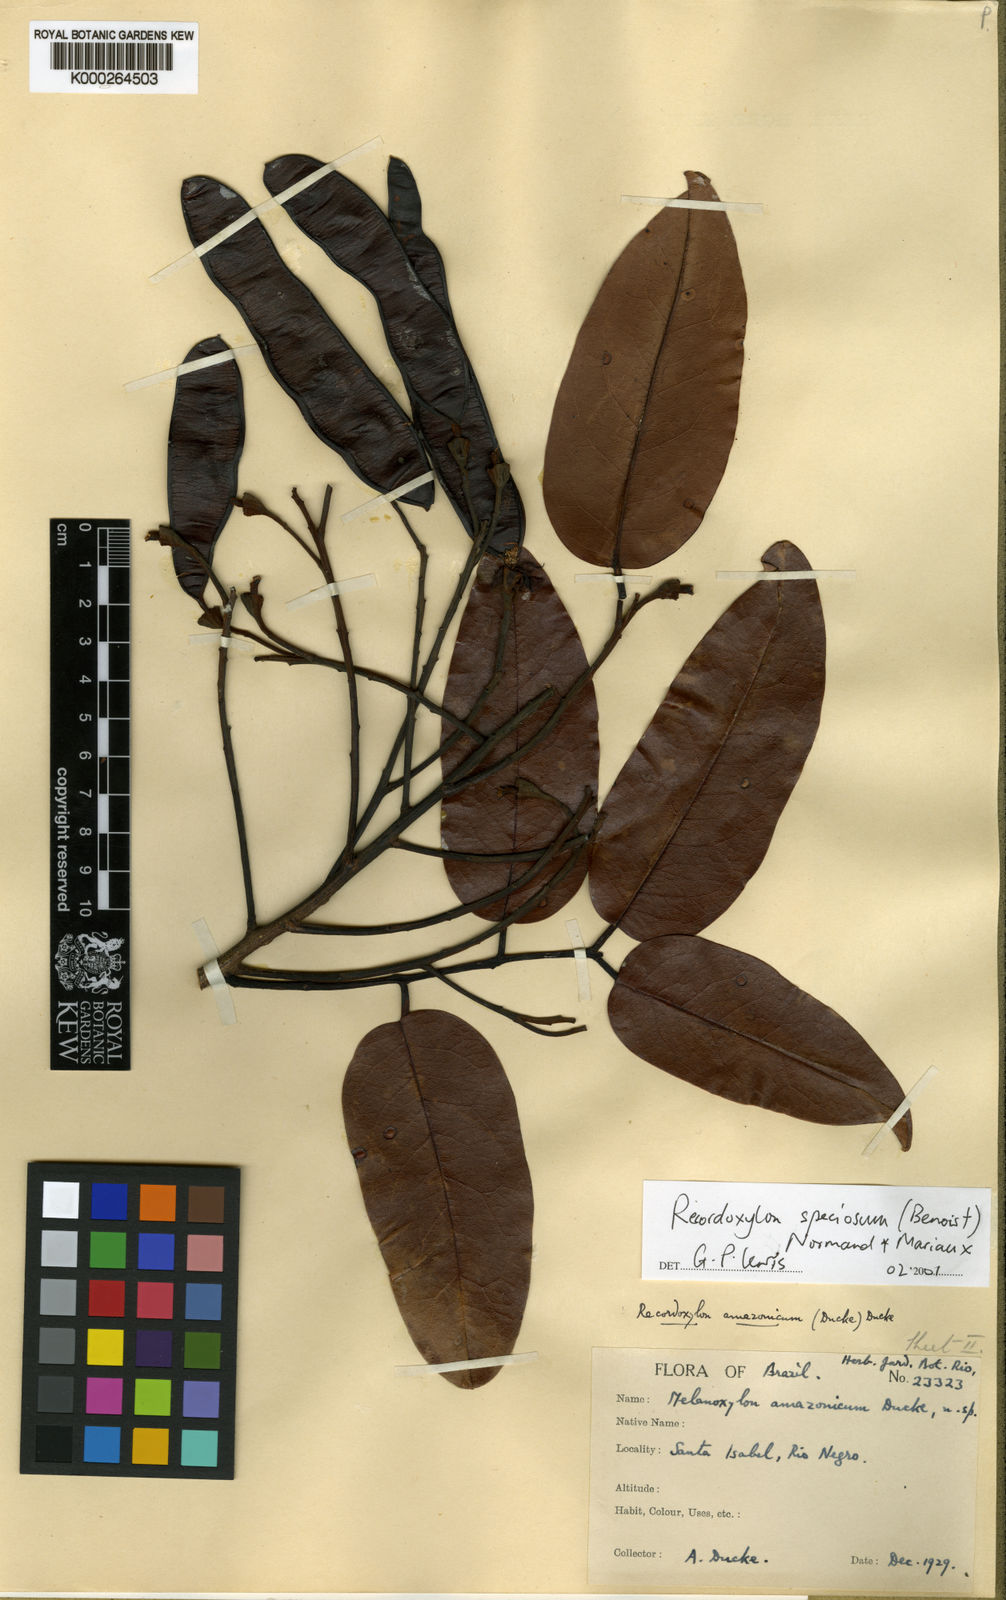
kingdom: Plantae
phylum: Tracheophyta
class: Magnoliopsida
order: Fabales
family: Fabaceae
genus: Recordoxylon
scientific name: Recordoxylon
